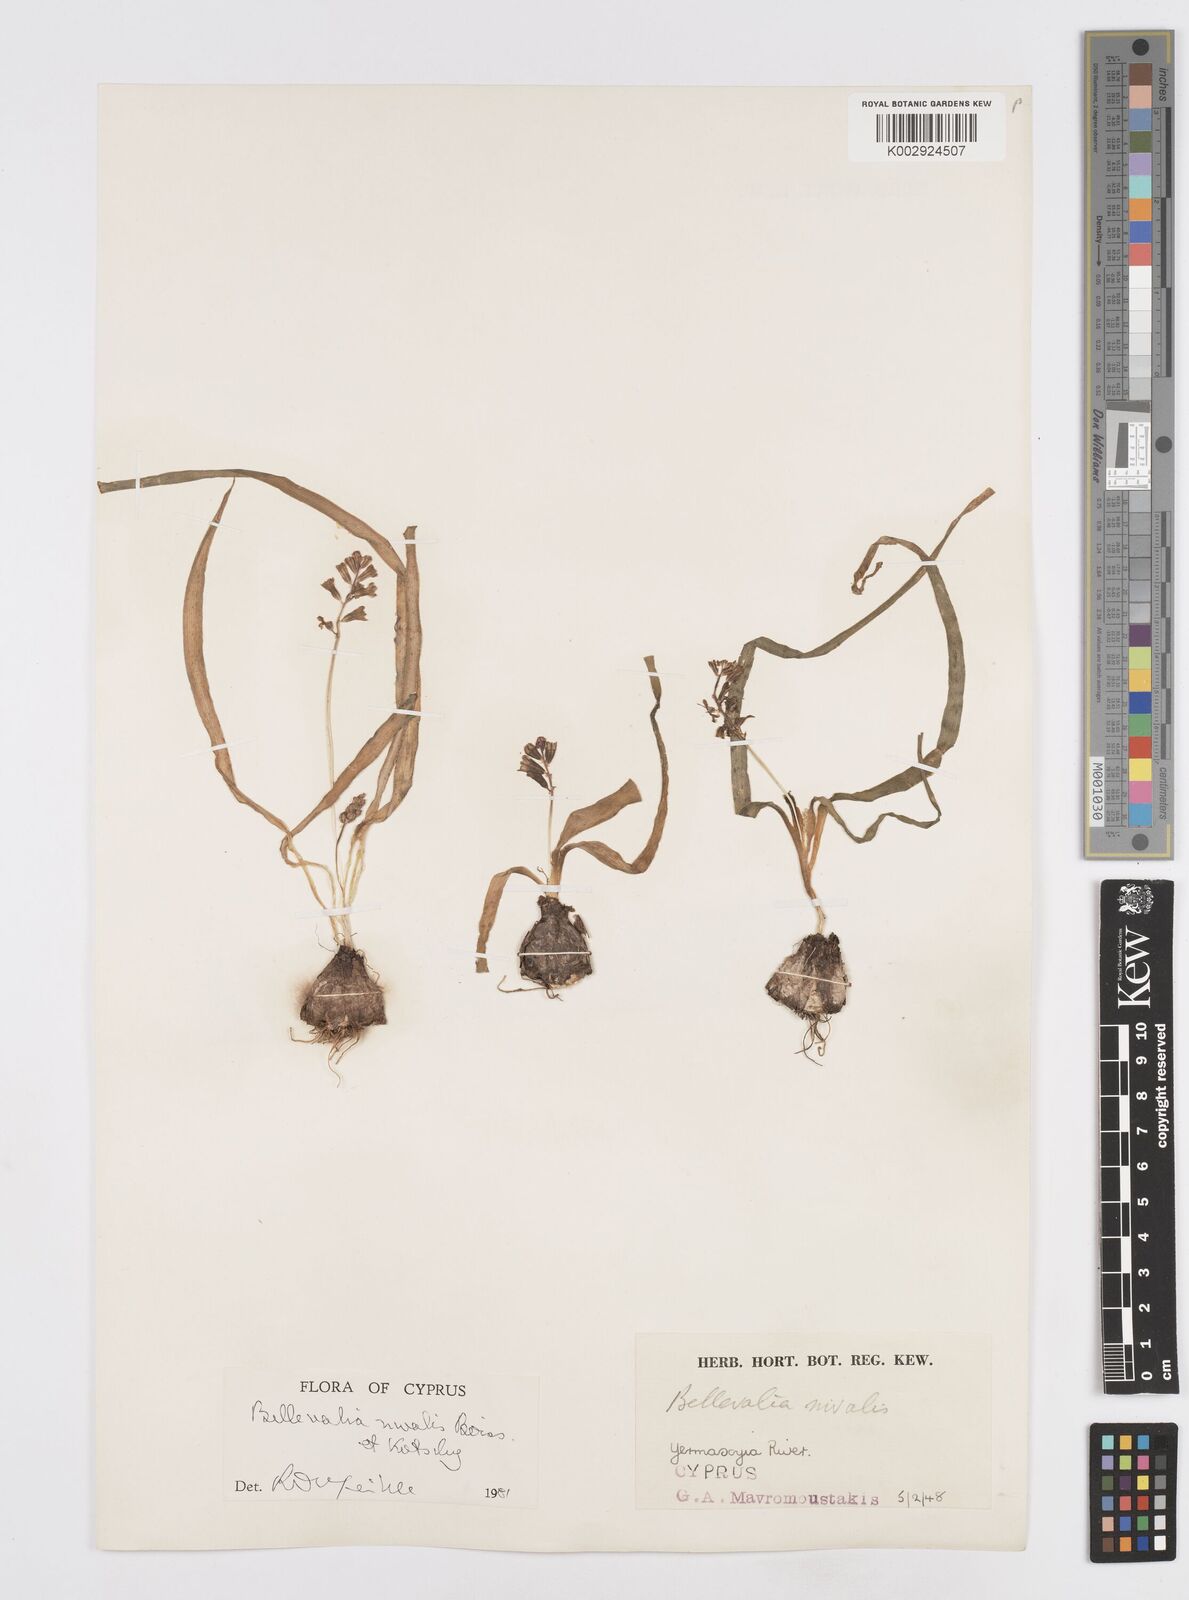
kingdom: Plantae
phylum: Tracheophyta
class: Liliopsida
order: Asparagales
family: Asparagaceae
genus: Bellevalia
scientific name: Bellevalia nivalis
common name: Snow bellevalia
